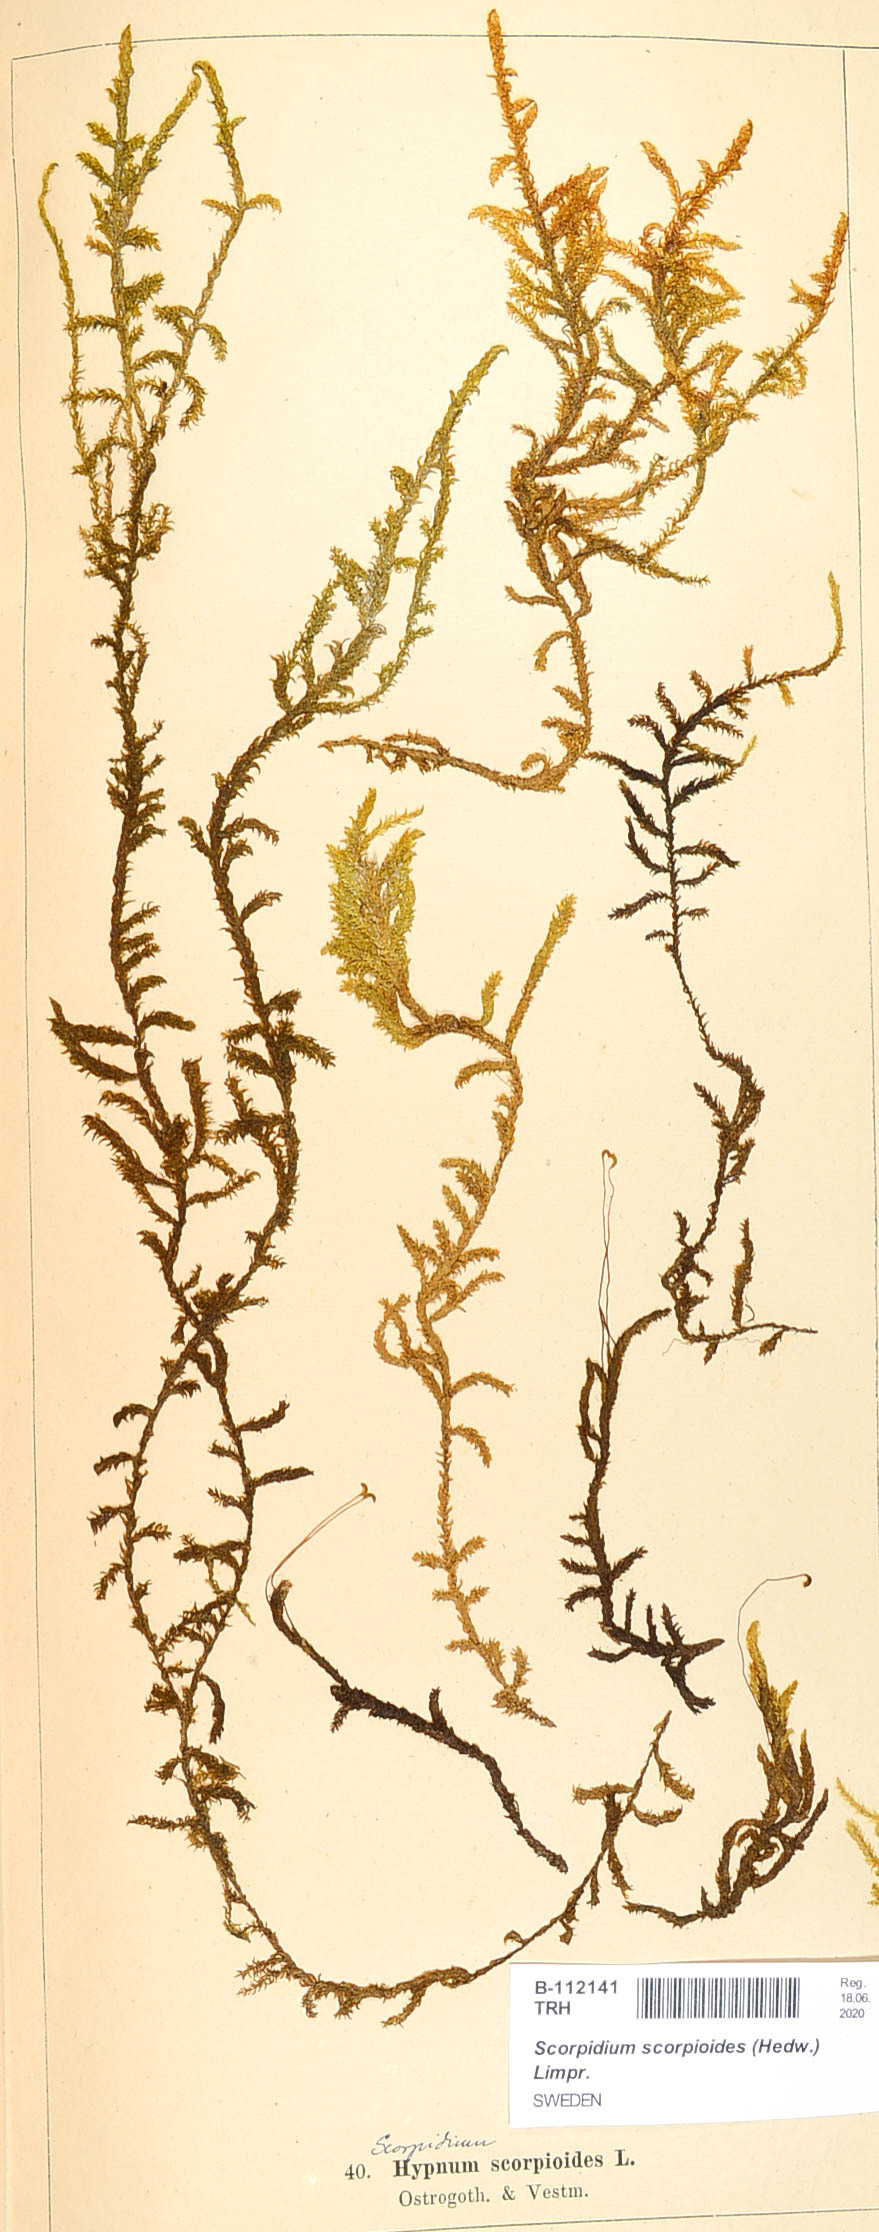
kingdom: Plantae
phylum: Bryophyta
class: Bryopsida
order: Hypnales
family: Scorpidiaceae
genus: Scorpidium
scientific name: Scorpidium scorpioides
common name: Hooked scorpion moss
